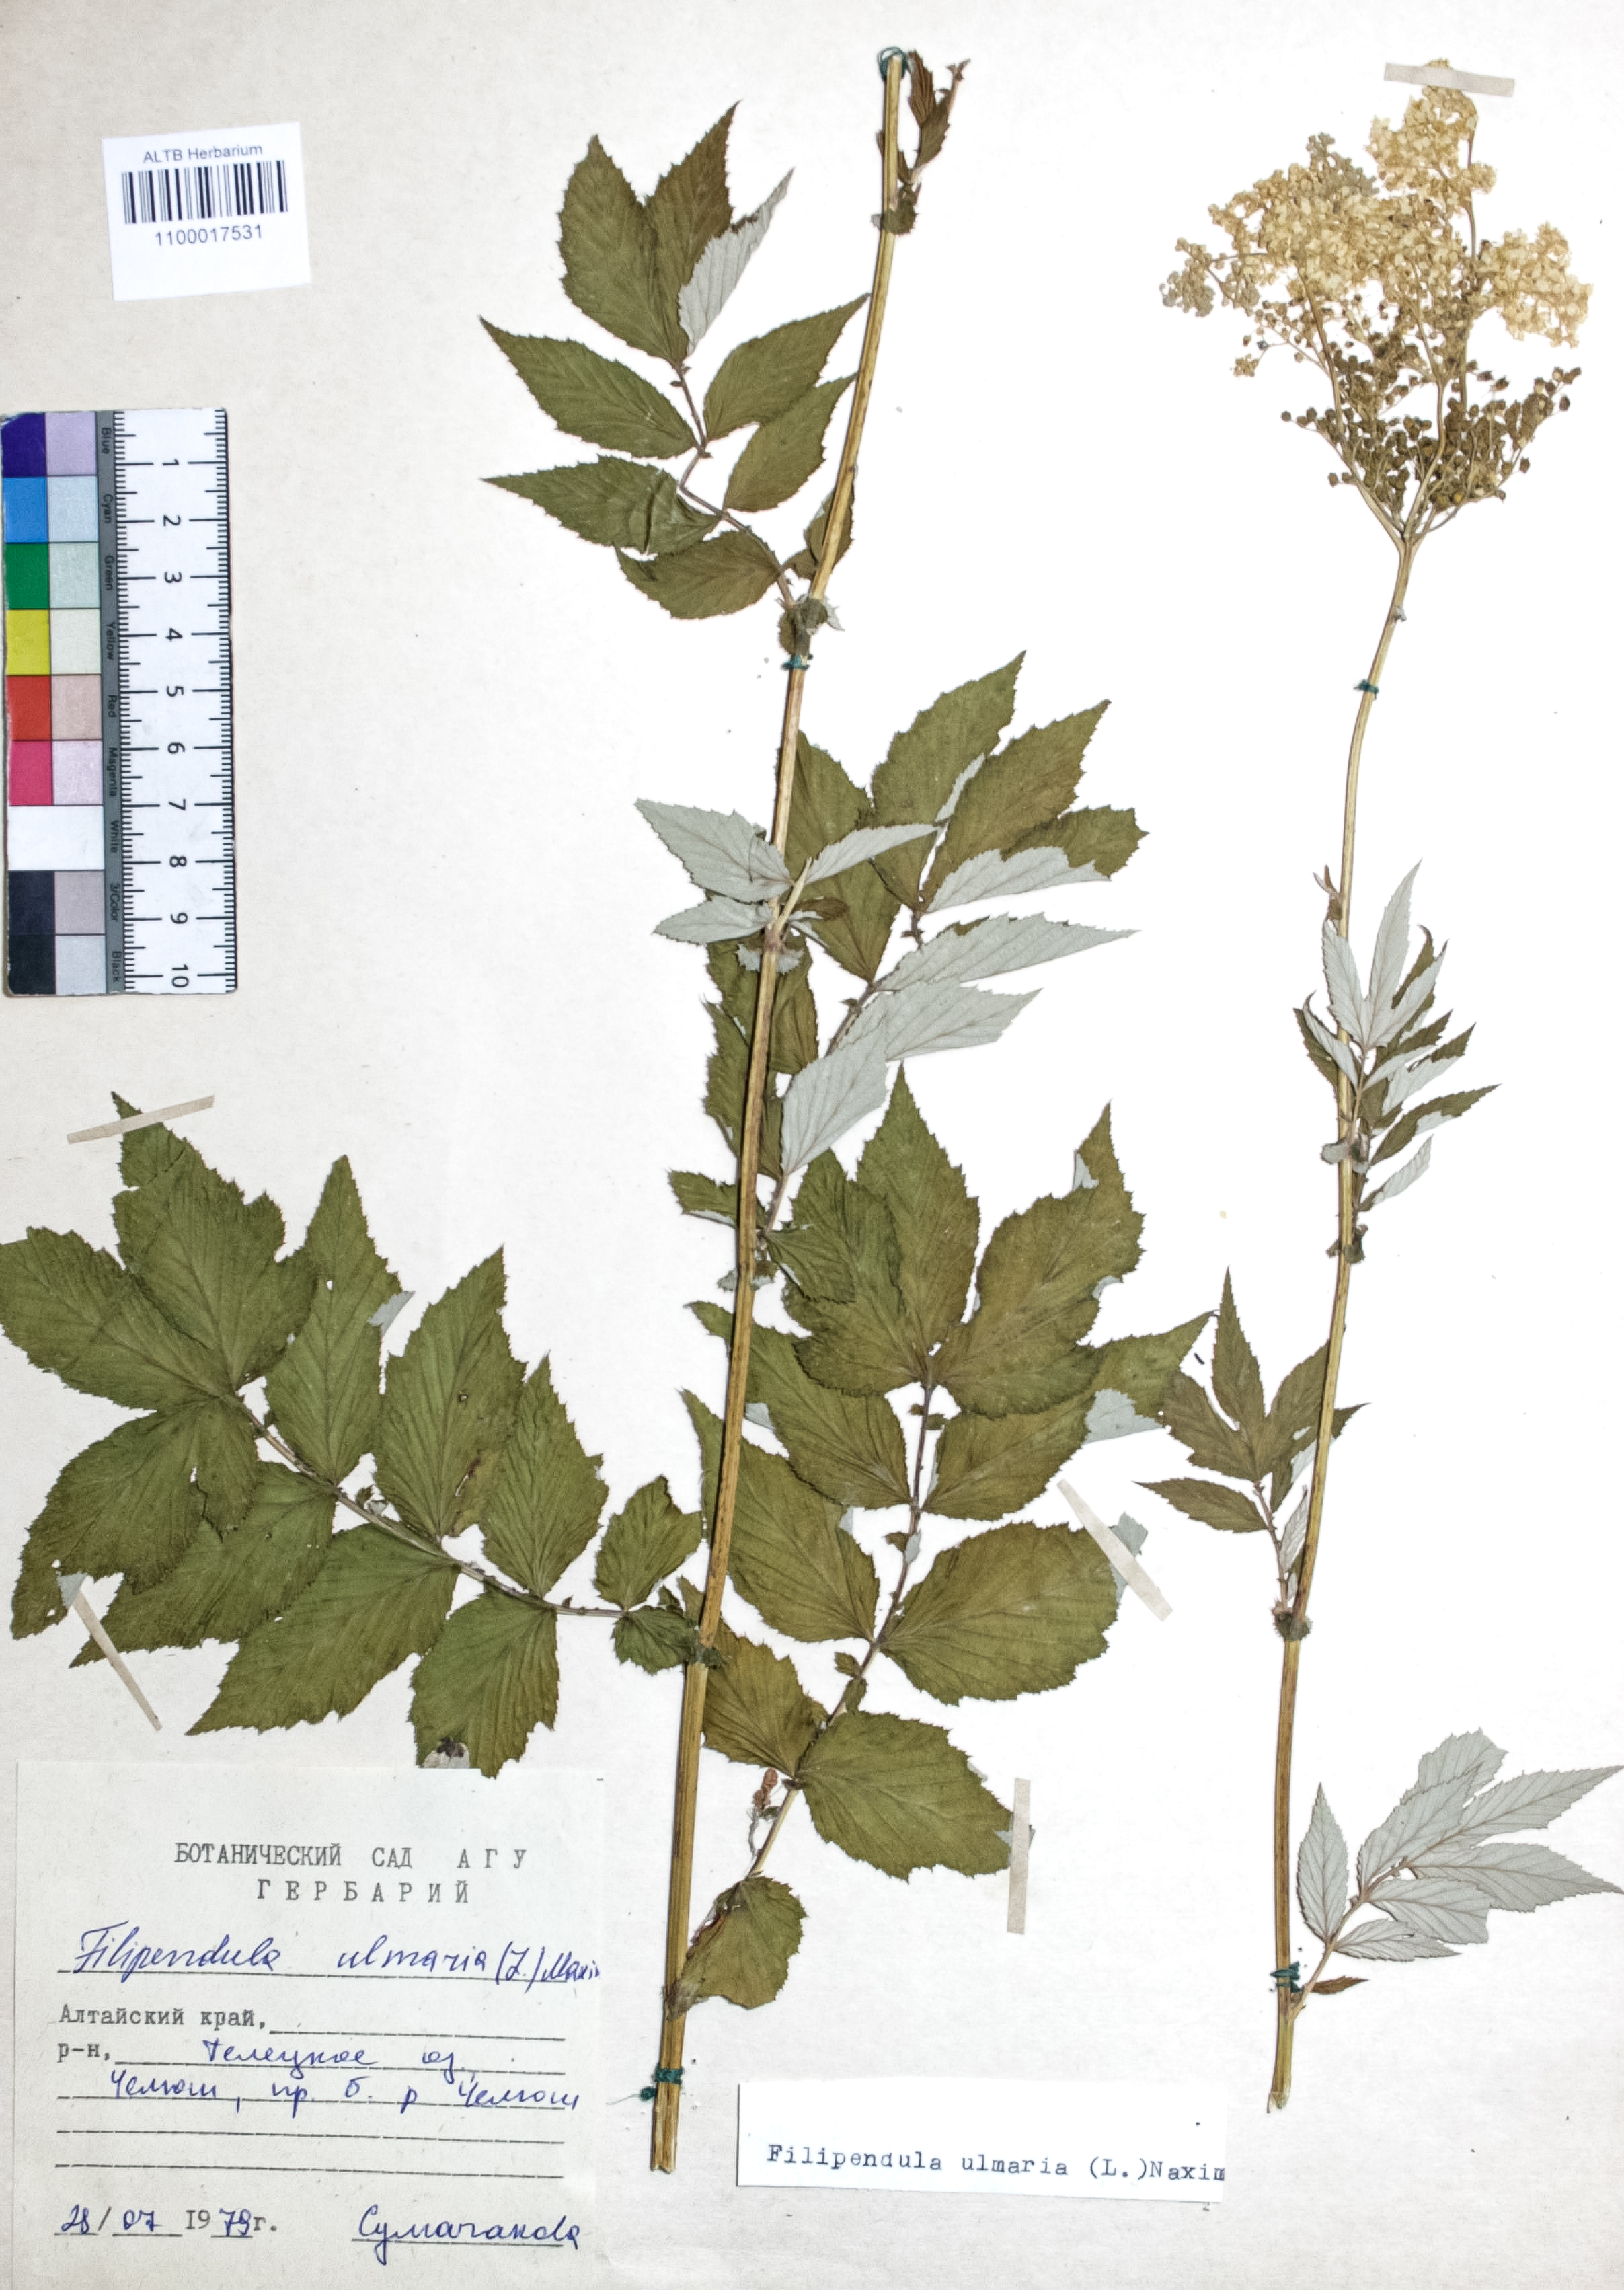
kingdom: Plantae
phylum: Tracheophyta
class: Magnoliopsida
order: Rosales
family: Rosaceae
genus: Filipendula
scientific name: Filipendula ulmaria
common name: Meadowsweet
